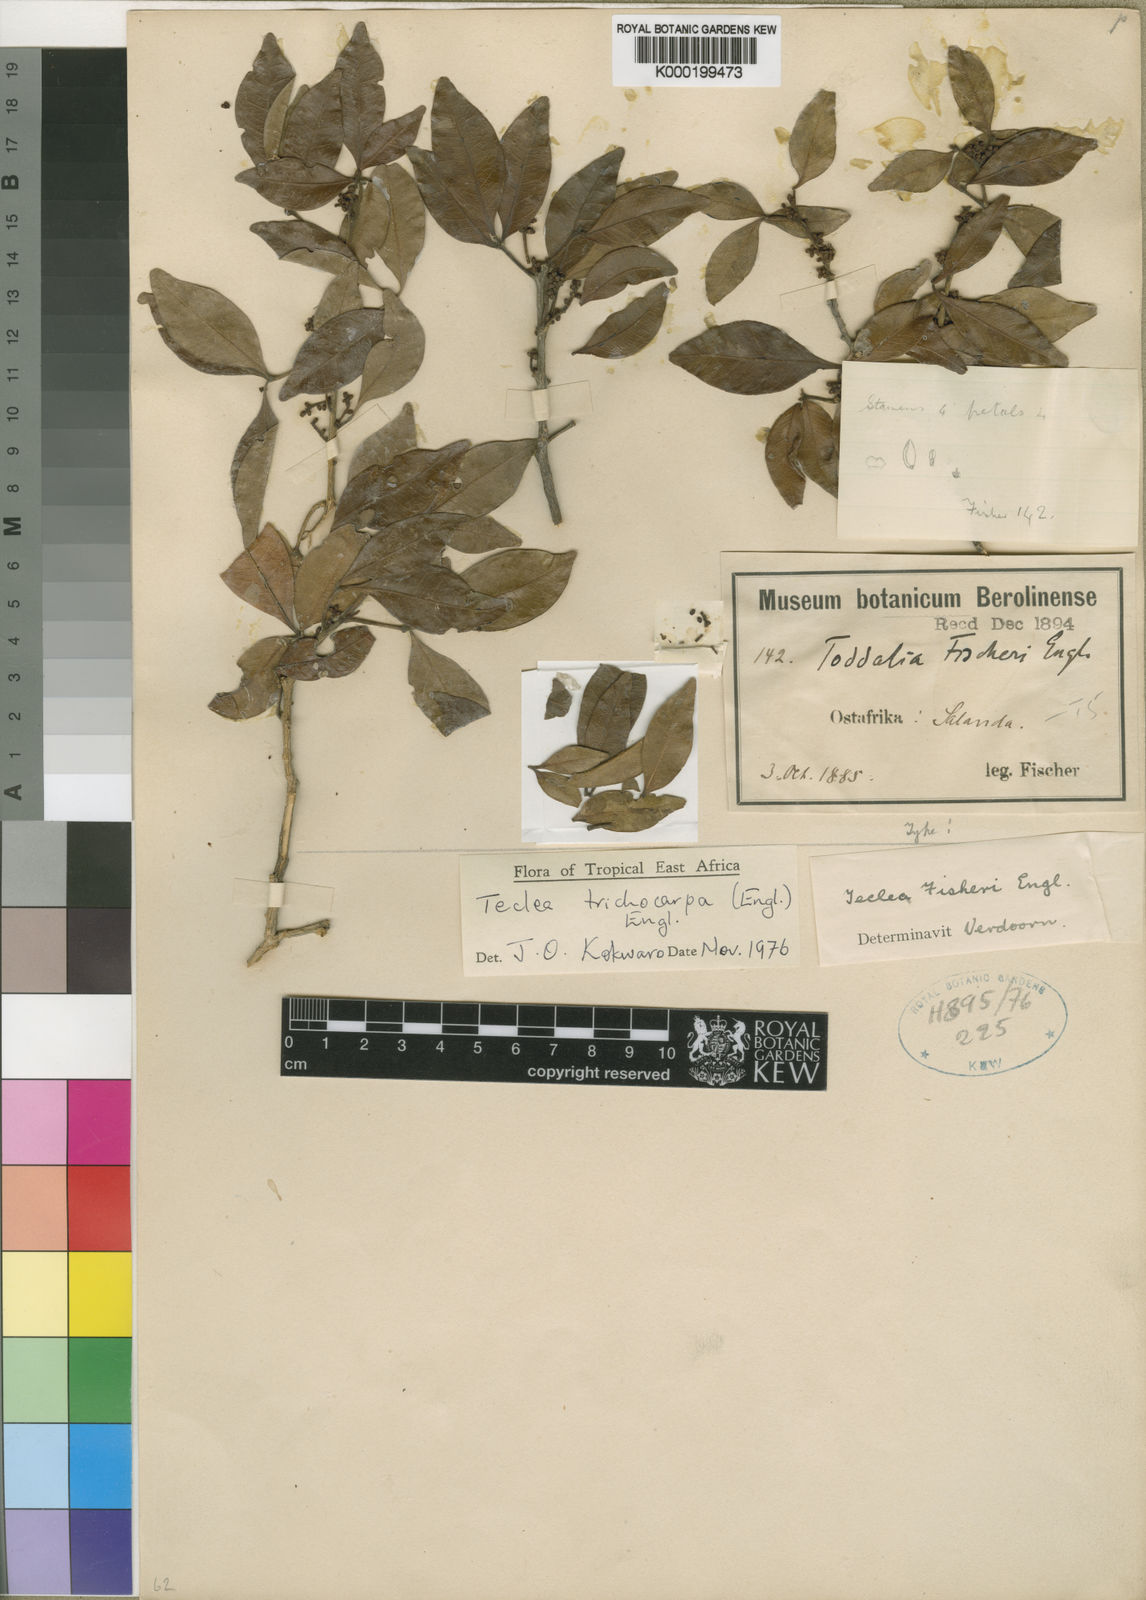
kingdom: Plantae
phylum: Tracheophyta
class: Magnoliopsida
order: Sapindales
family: Rutaceae
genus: Vepris
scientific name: Vepris trichocarpa
